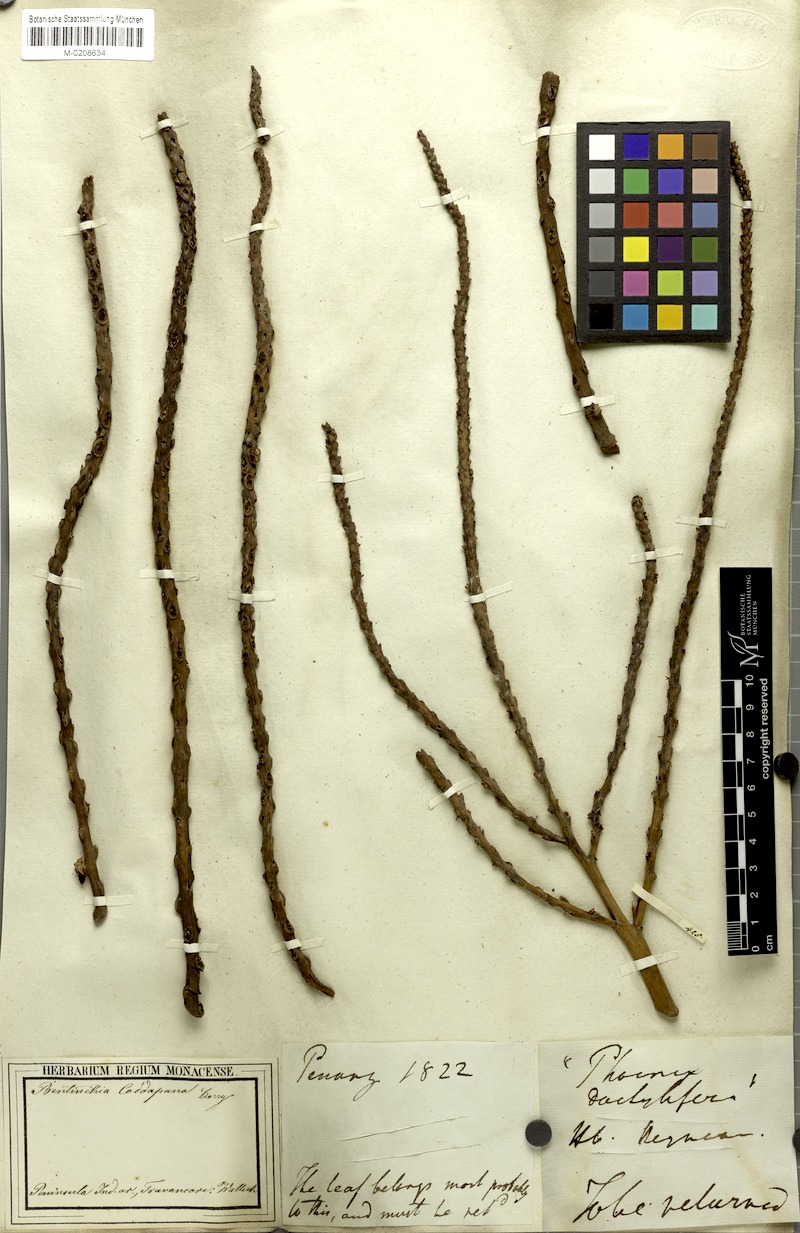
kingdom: Plantae
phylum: Tracheophyta
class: Liliopsida
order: Arecales
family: Arecaceae
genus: Bentinckia
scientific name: Bentinckia condapanna
